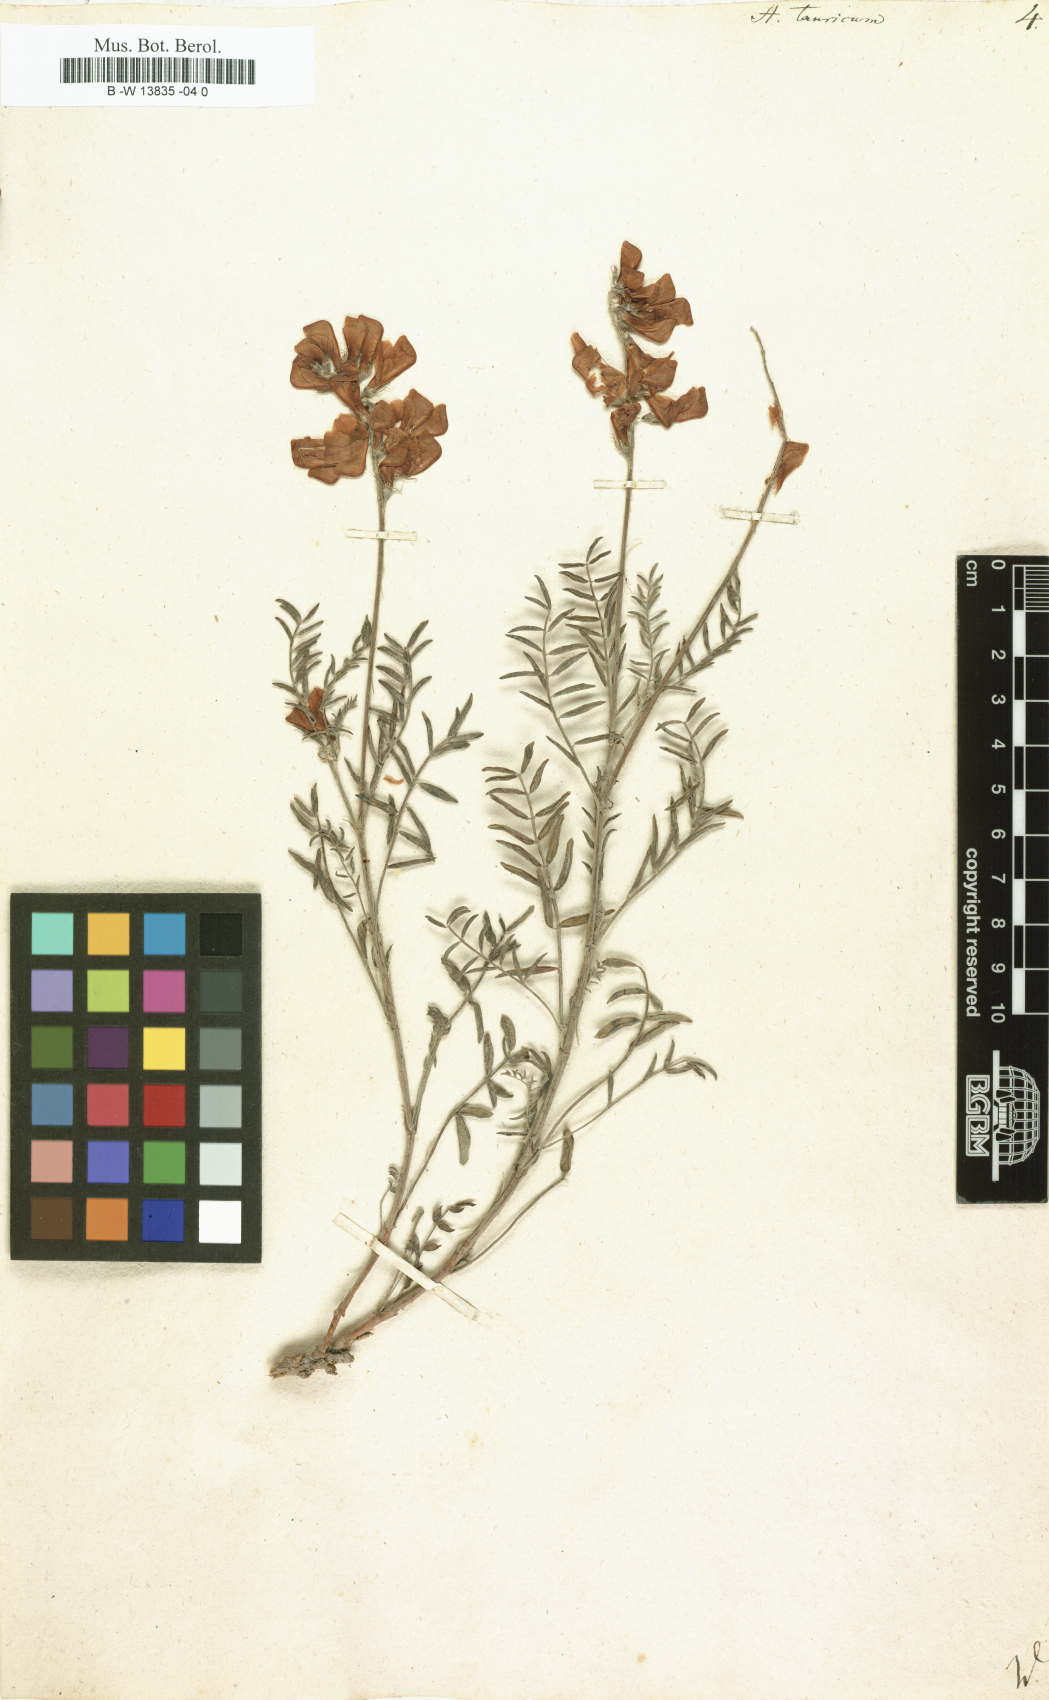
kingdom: Plantae
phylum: Tracheophyta
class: Magnoliopsida
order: Fabales
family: Fabaceae
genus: Hedysarum
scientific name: Hedysarum tauricum
